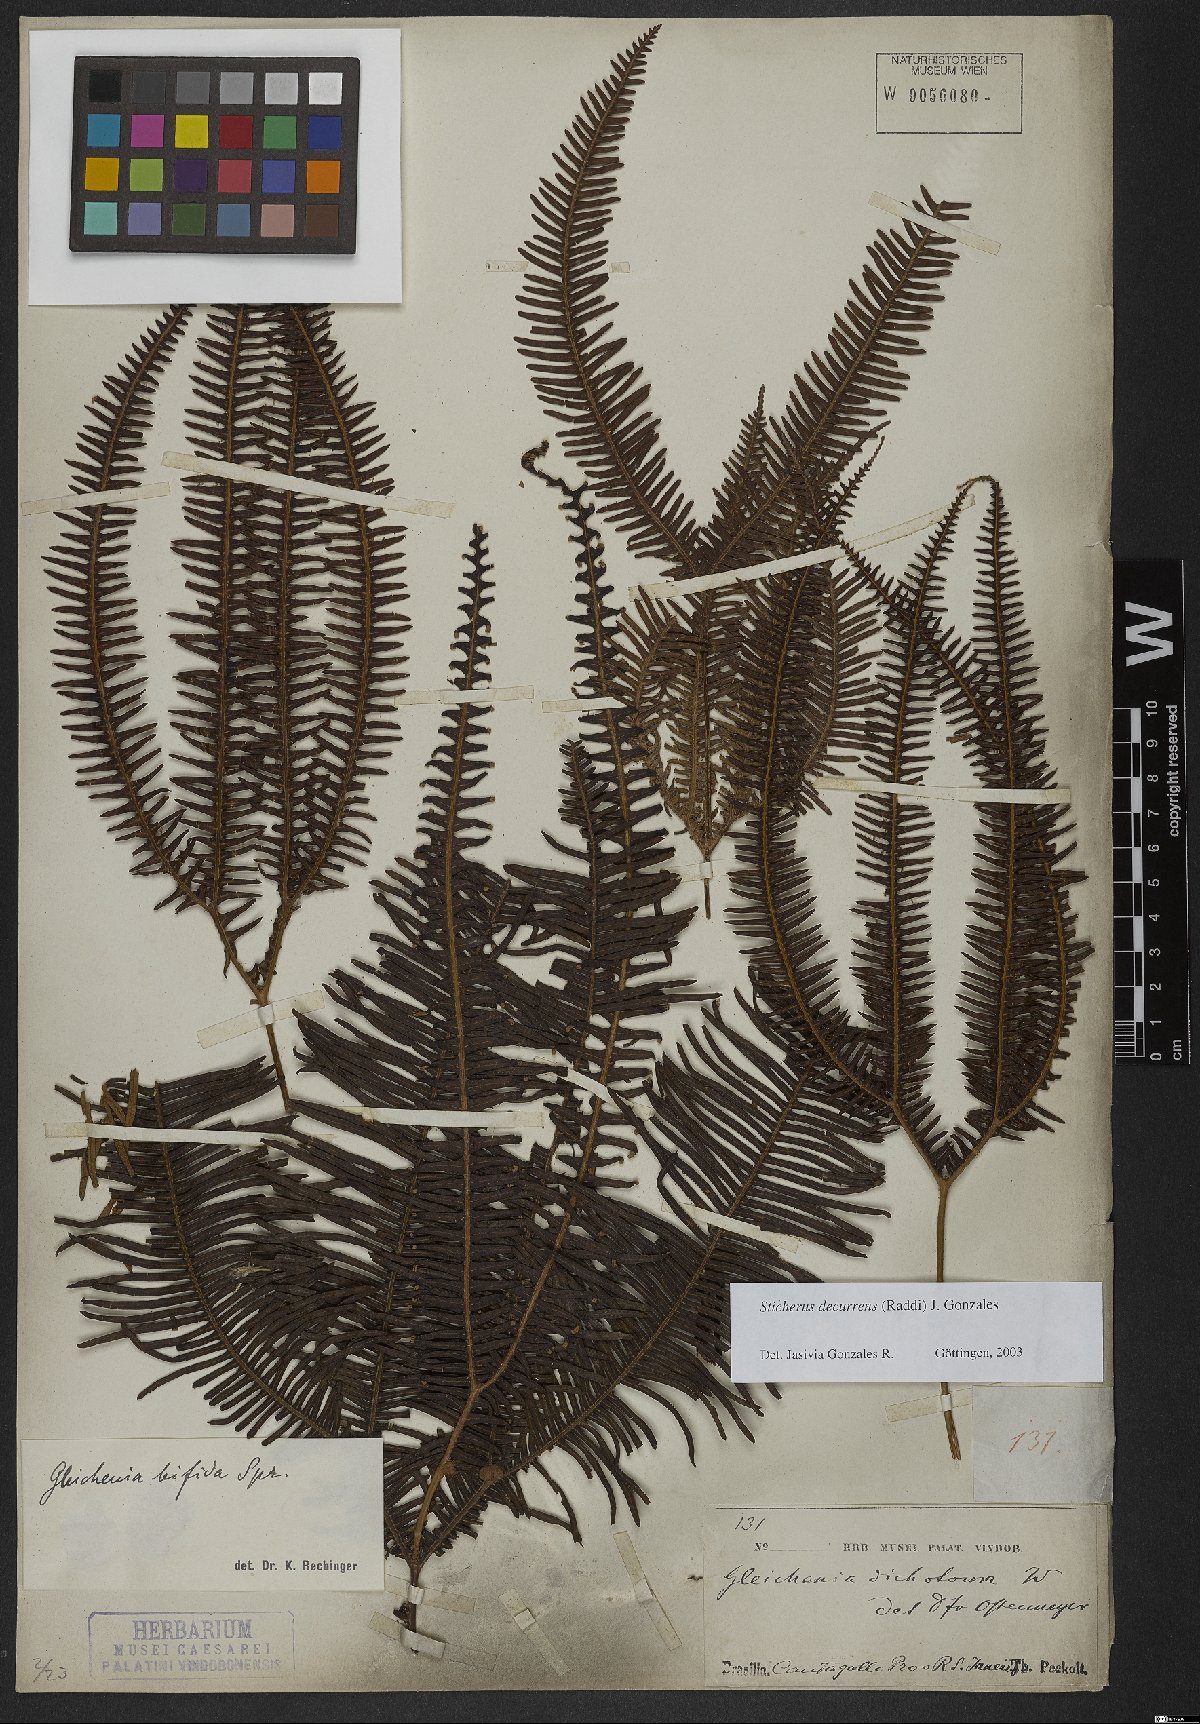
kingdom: Plantae
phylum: Tracheophyta
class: Polypodiopsida
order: Gleicheniales
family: Gleicheniaceae
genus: Sticherus
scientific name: Sticherus decurrens
